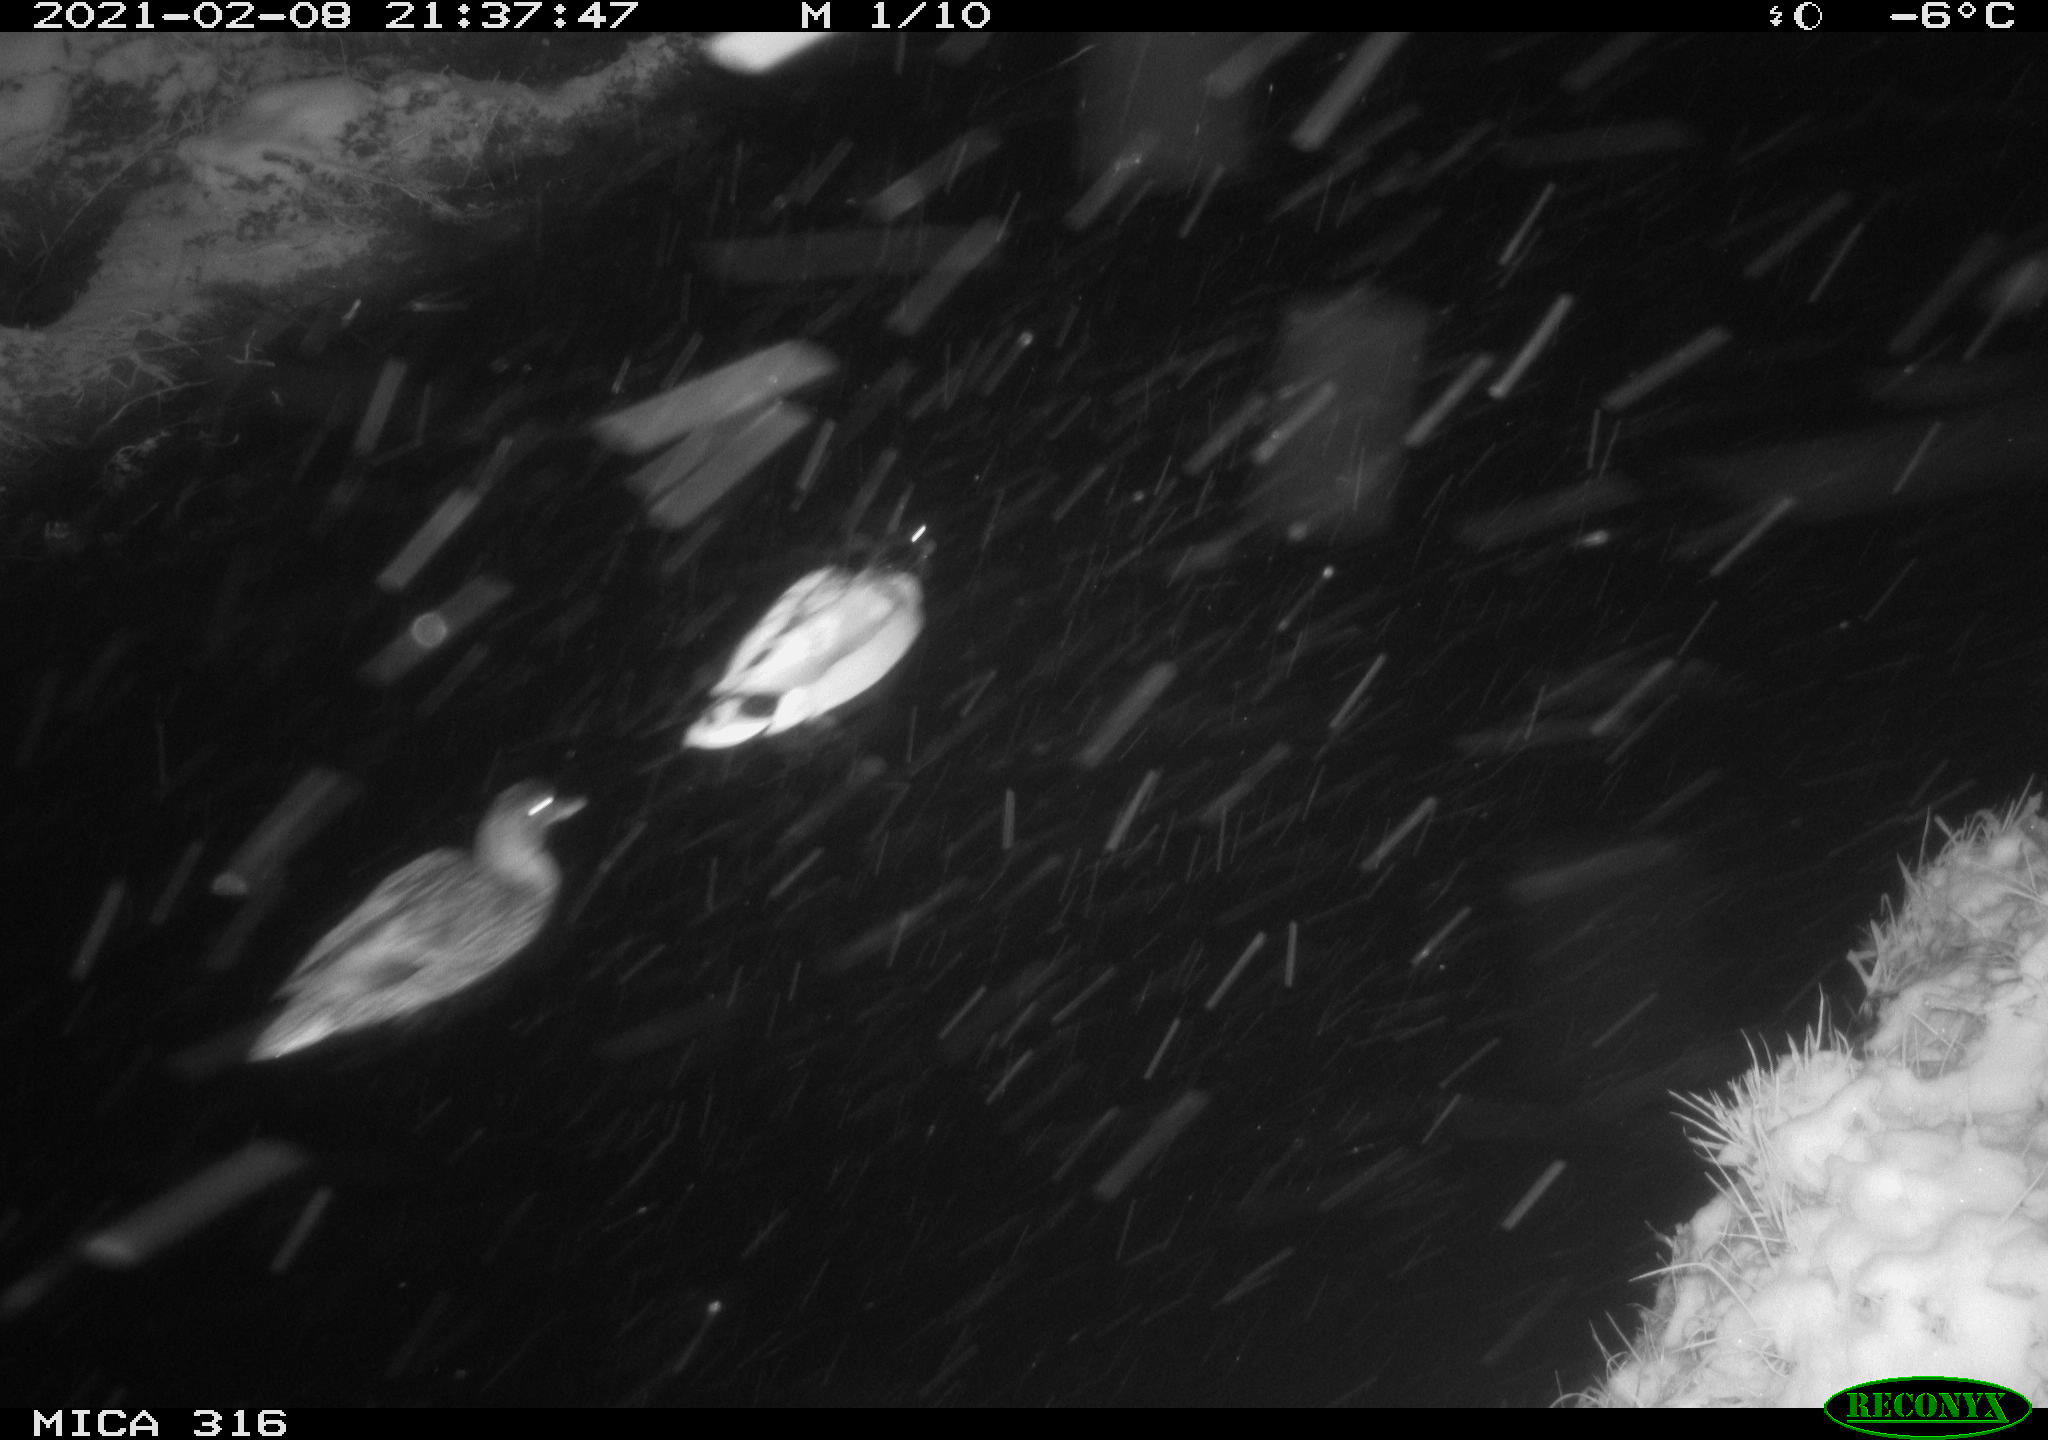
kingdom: Animalia
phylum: Chordata
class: Aves
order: Anseriformes
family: Anatidae
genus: Anas
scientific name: Anas platyrhynchos
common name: Mallard
